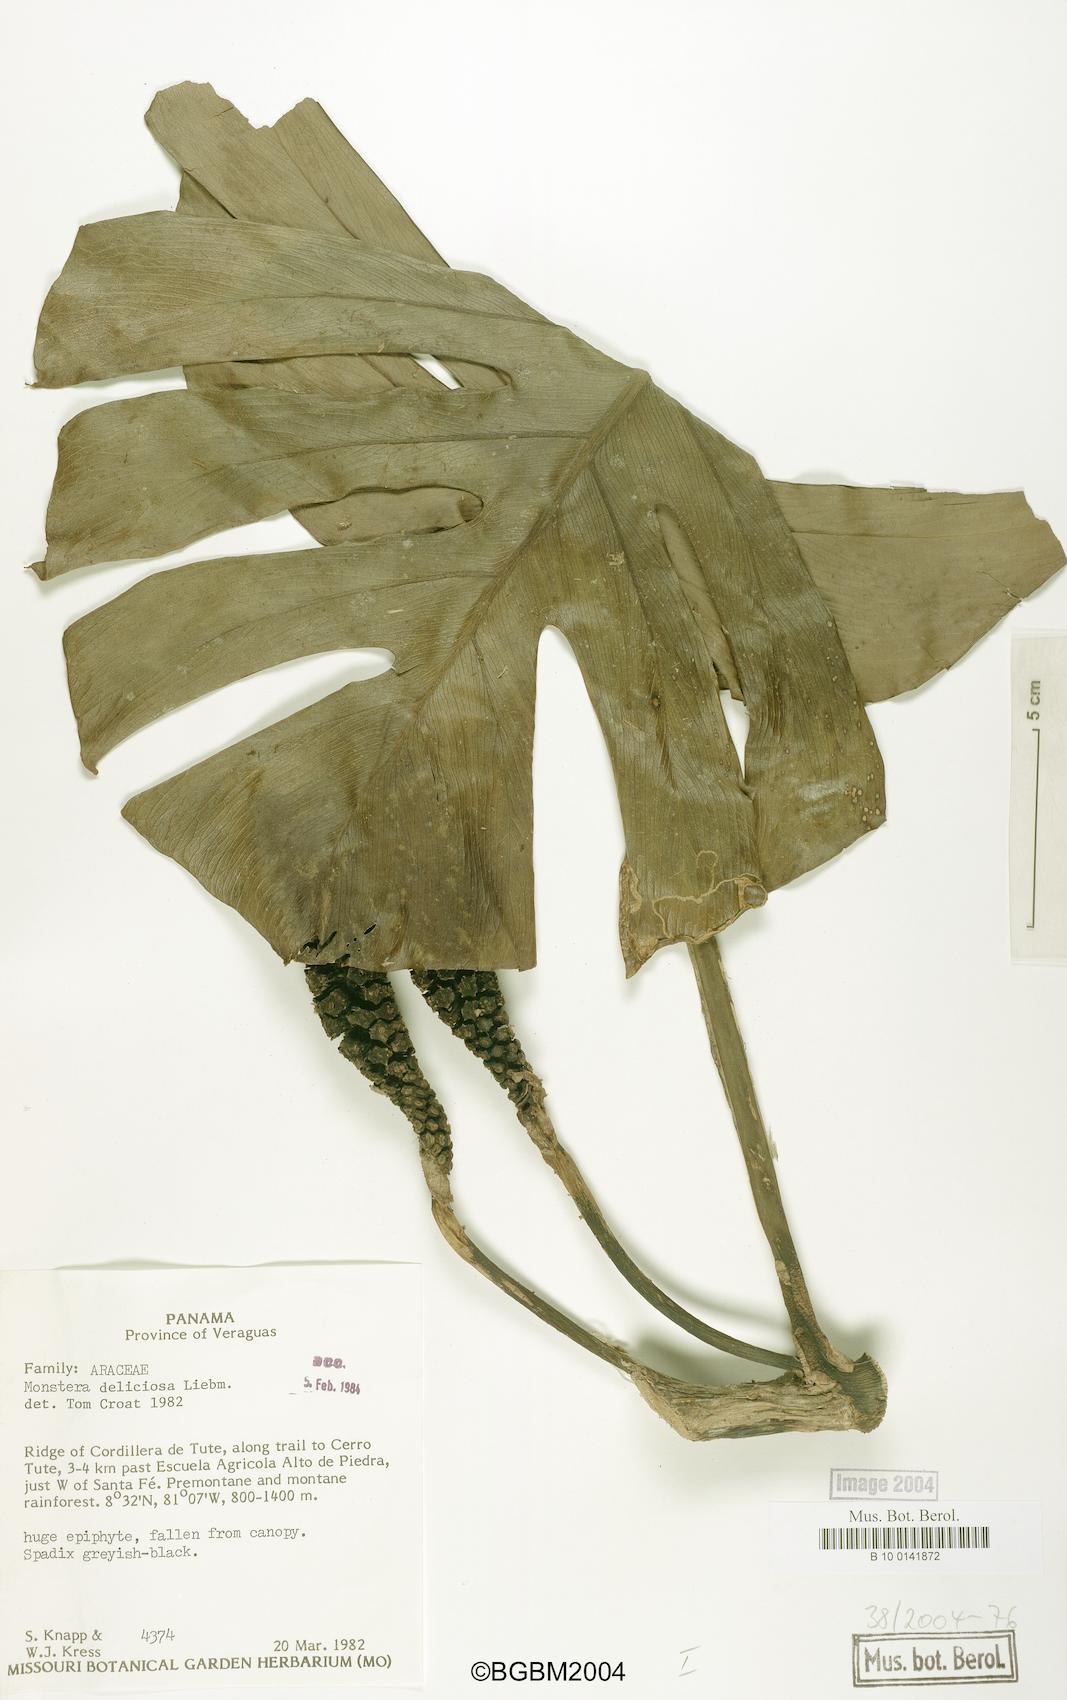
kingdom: Plantae
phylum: Tracheophyta
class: Liliopsida
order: Alismatales
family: Araceae
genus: Monstera
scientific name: Monstera deliciosa
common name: Cut-leaf-philodendron
